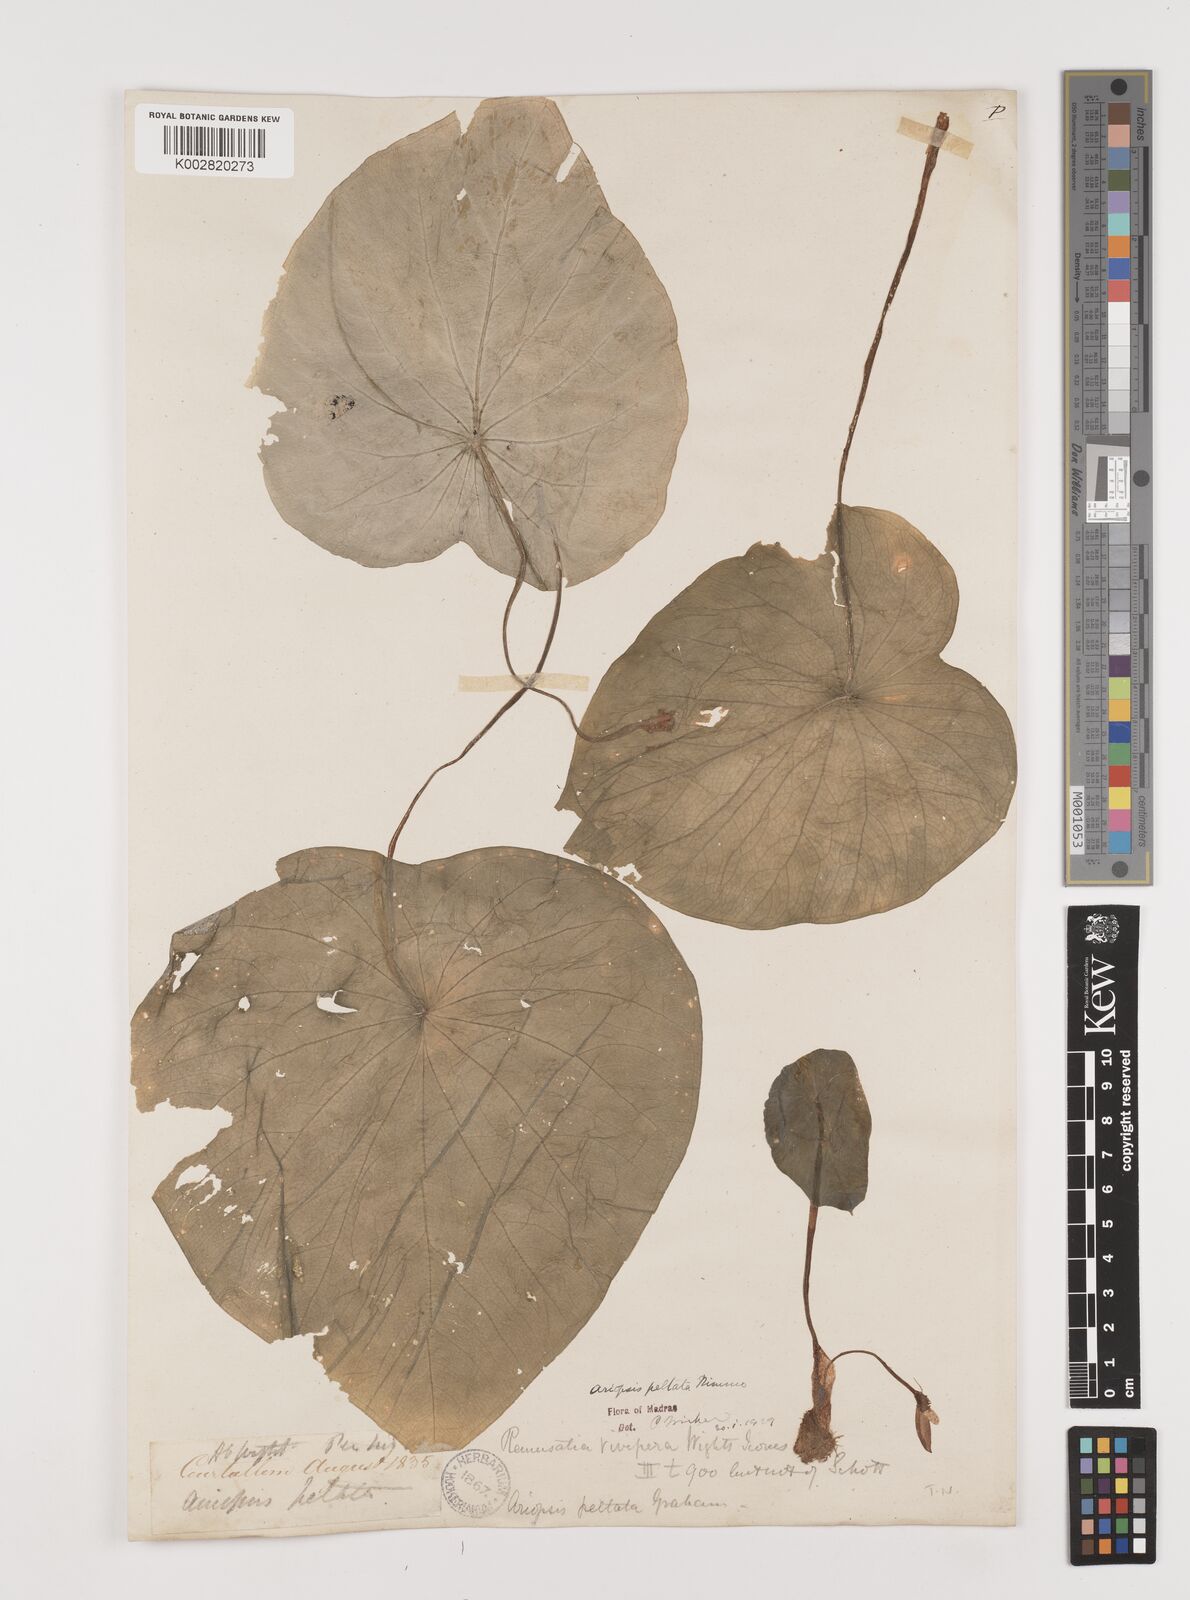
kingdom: Plantae
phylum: Tracheophyta
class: Liliopsida
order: Alismatales
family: Araceae
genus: Ariopsis
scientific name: Ariopsis peltata
